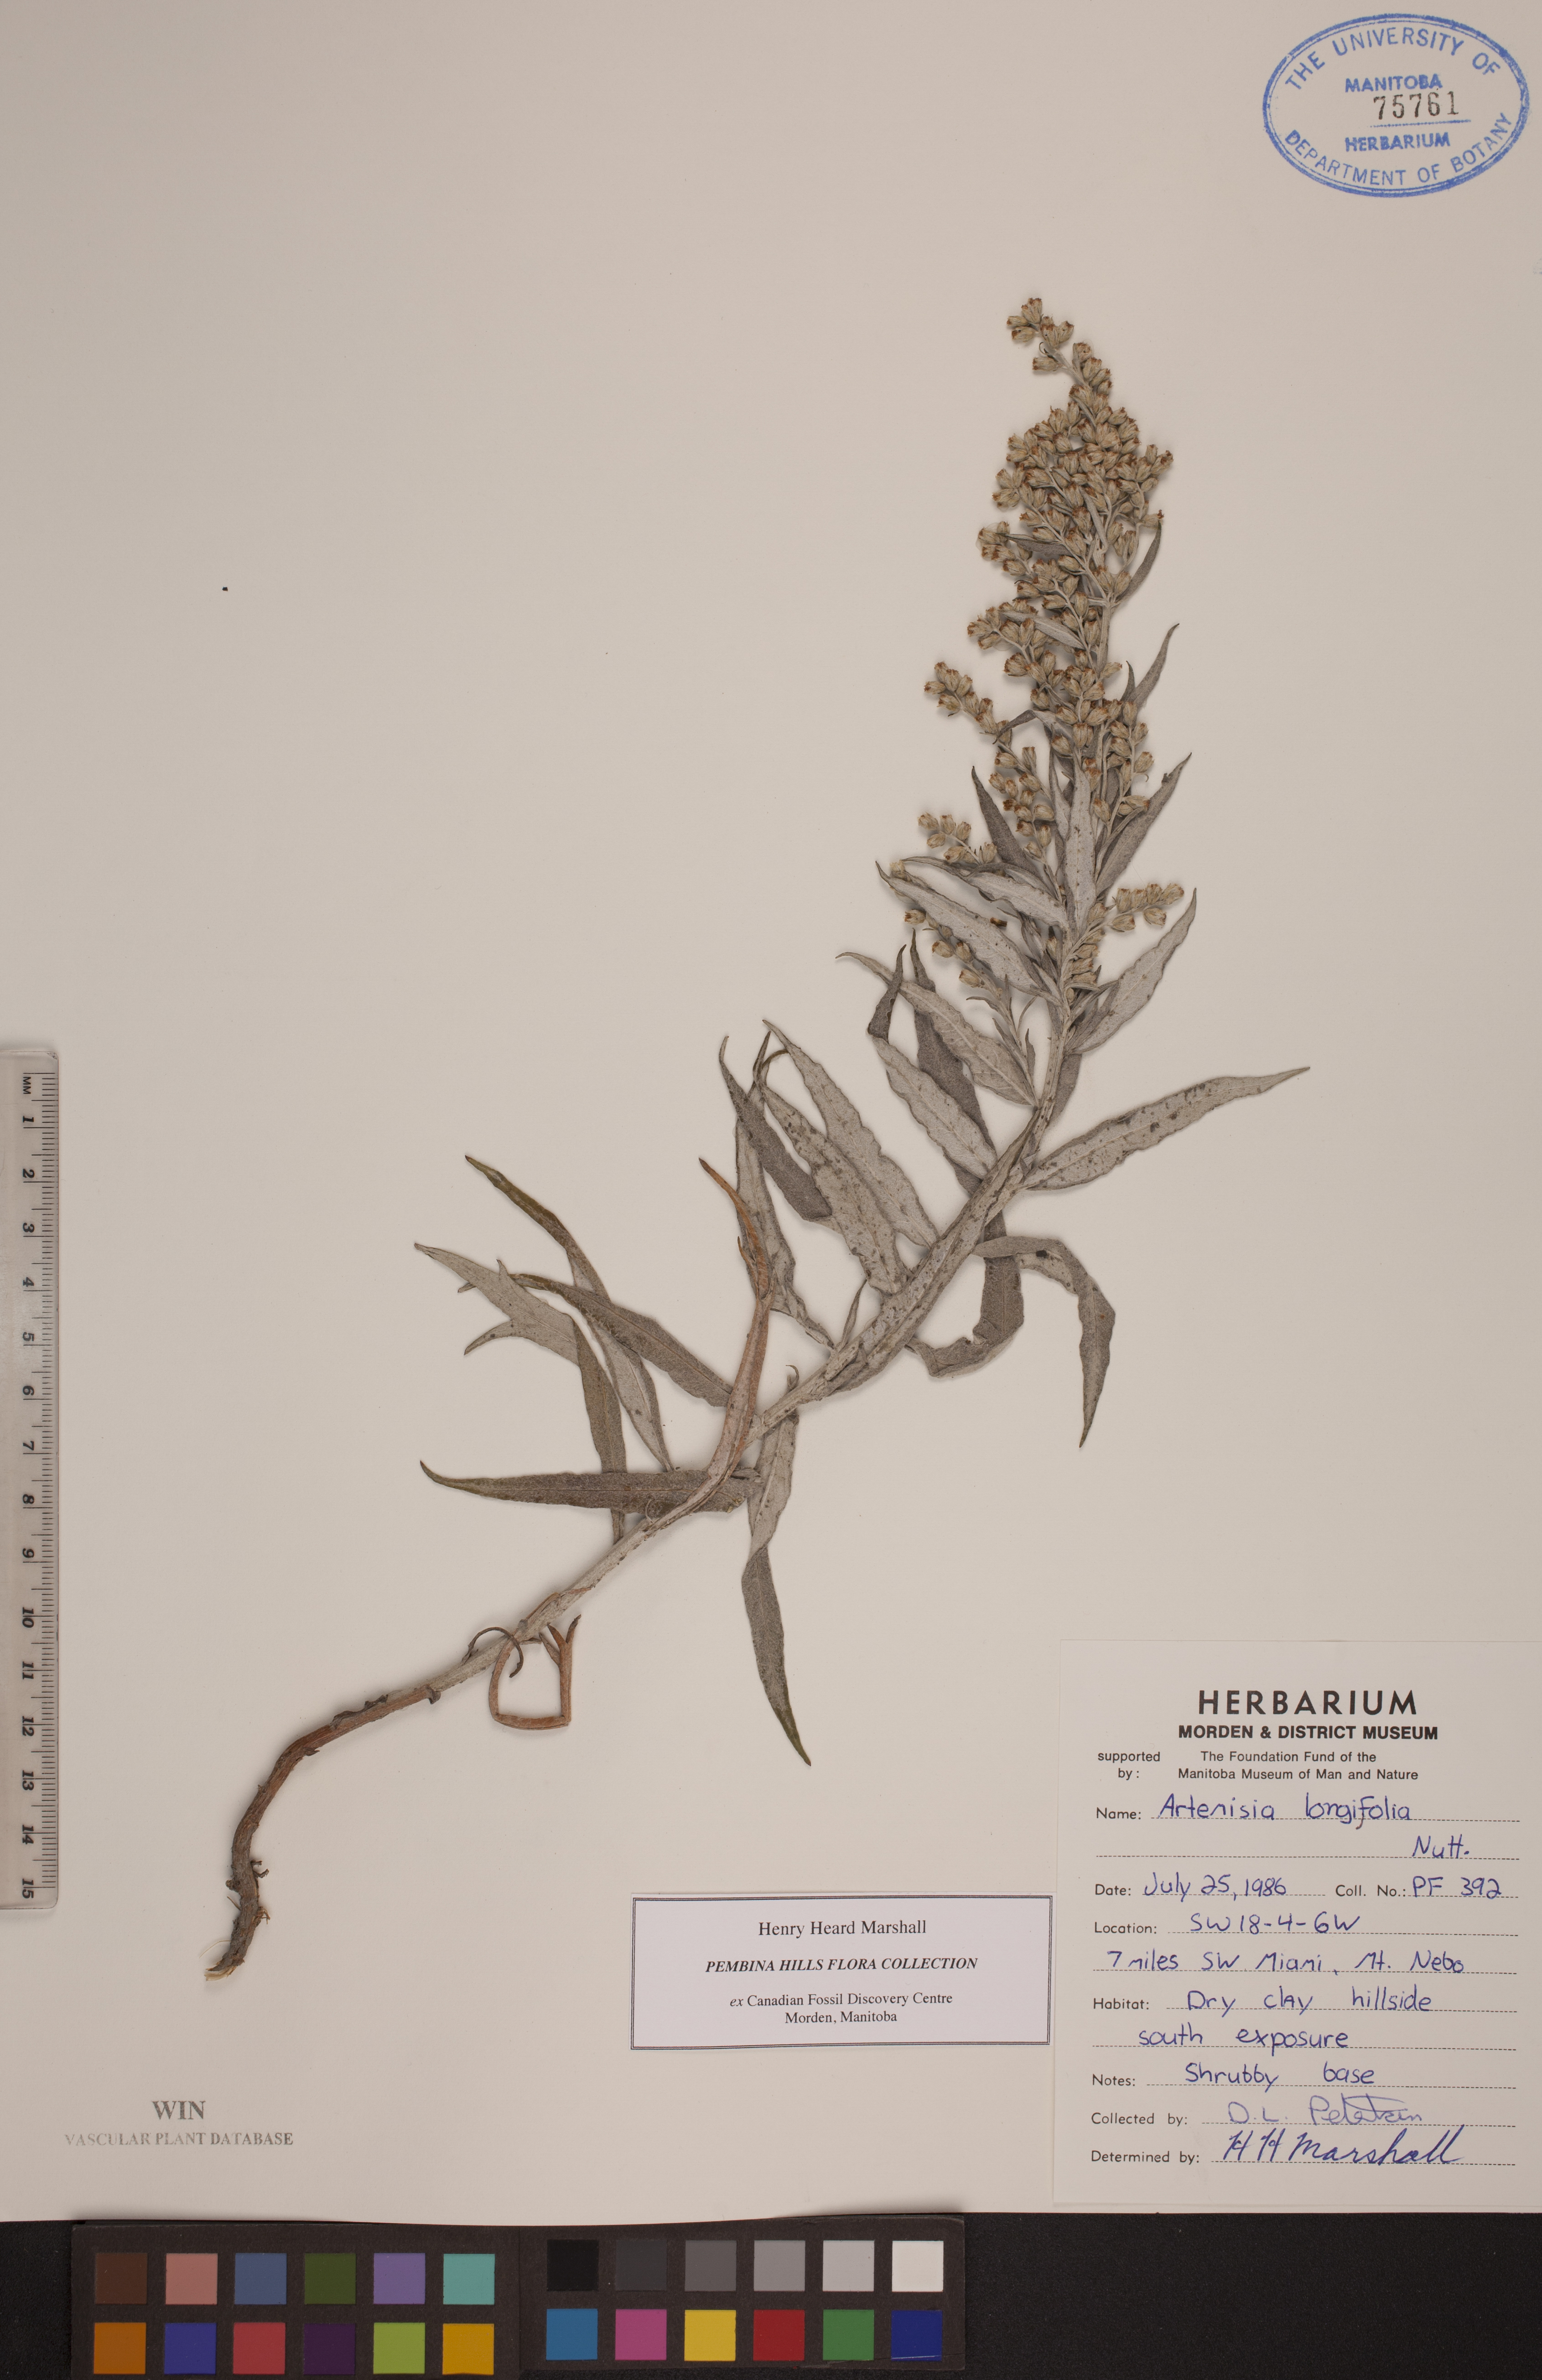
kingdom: Plantae
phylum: Tracheophyta
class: Magnoliopsida
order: Asterales
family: Asteraceae
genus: Artemisia
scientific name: Artemisia longifolia
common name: Long-leaved mugwort
